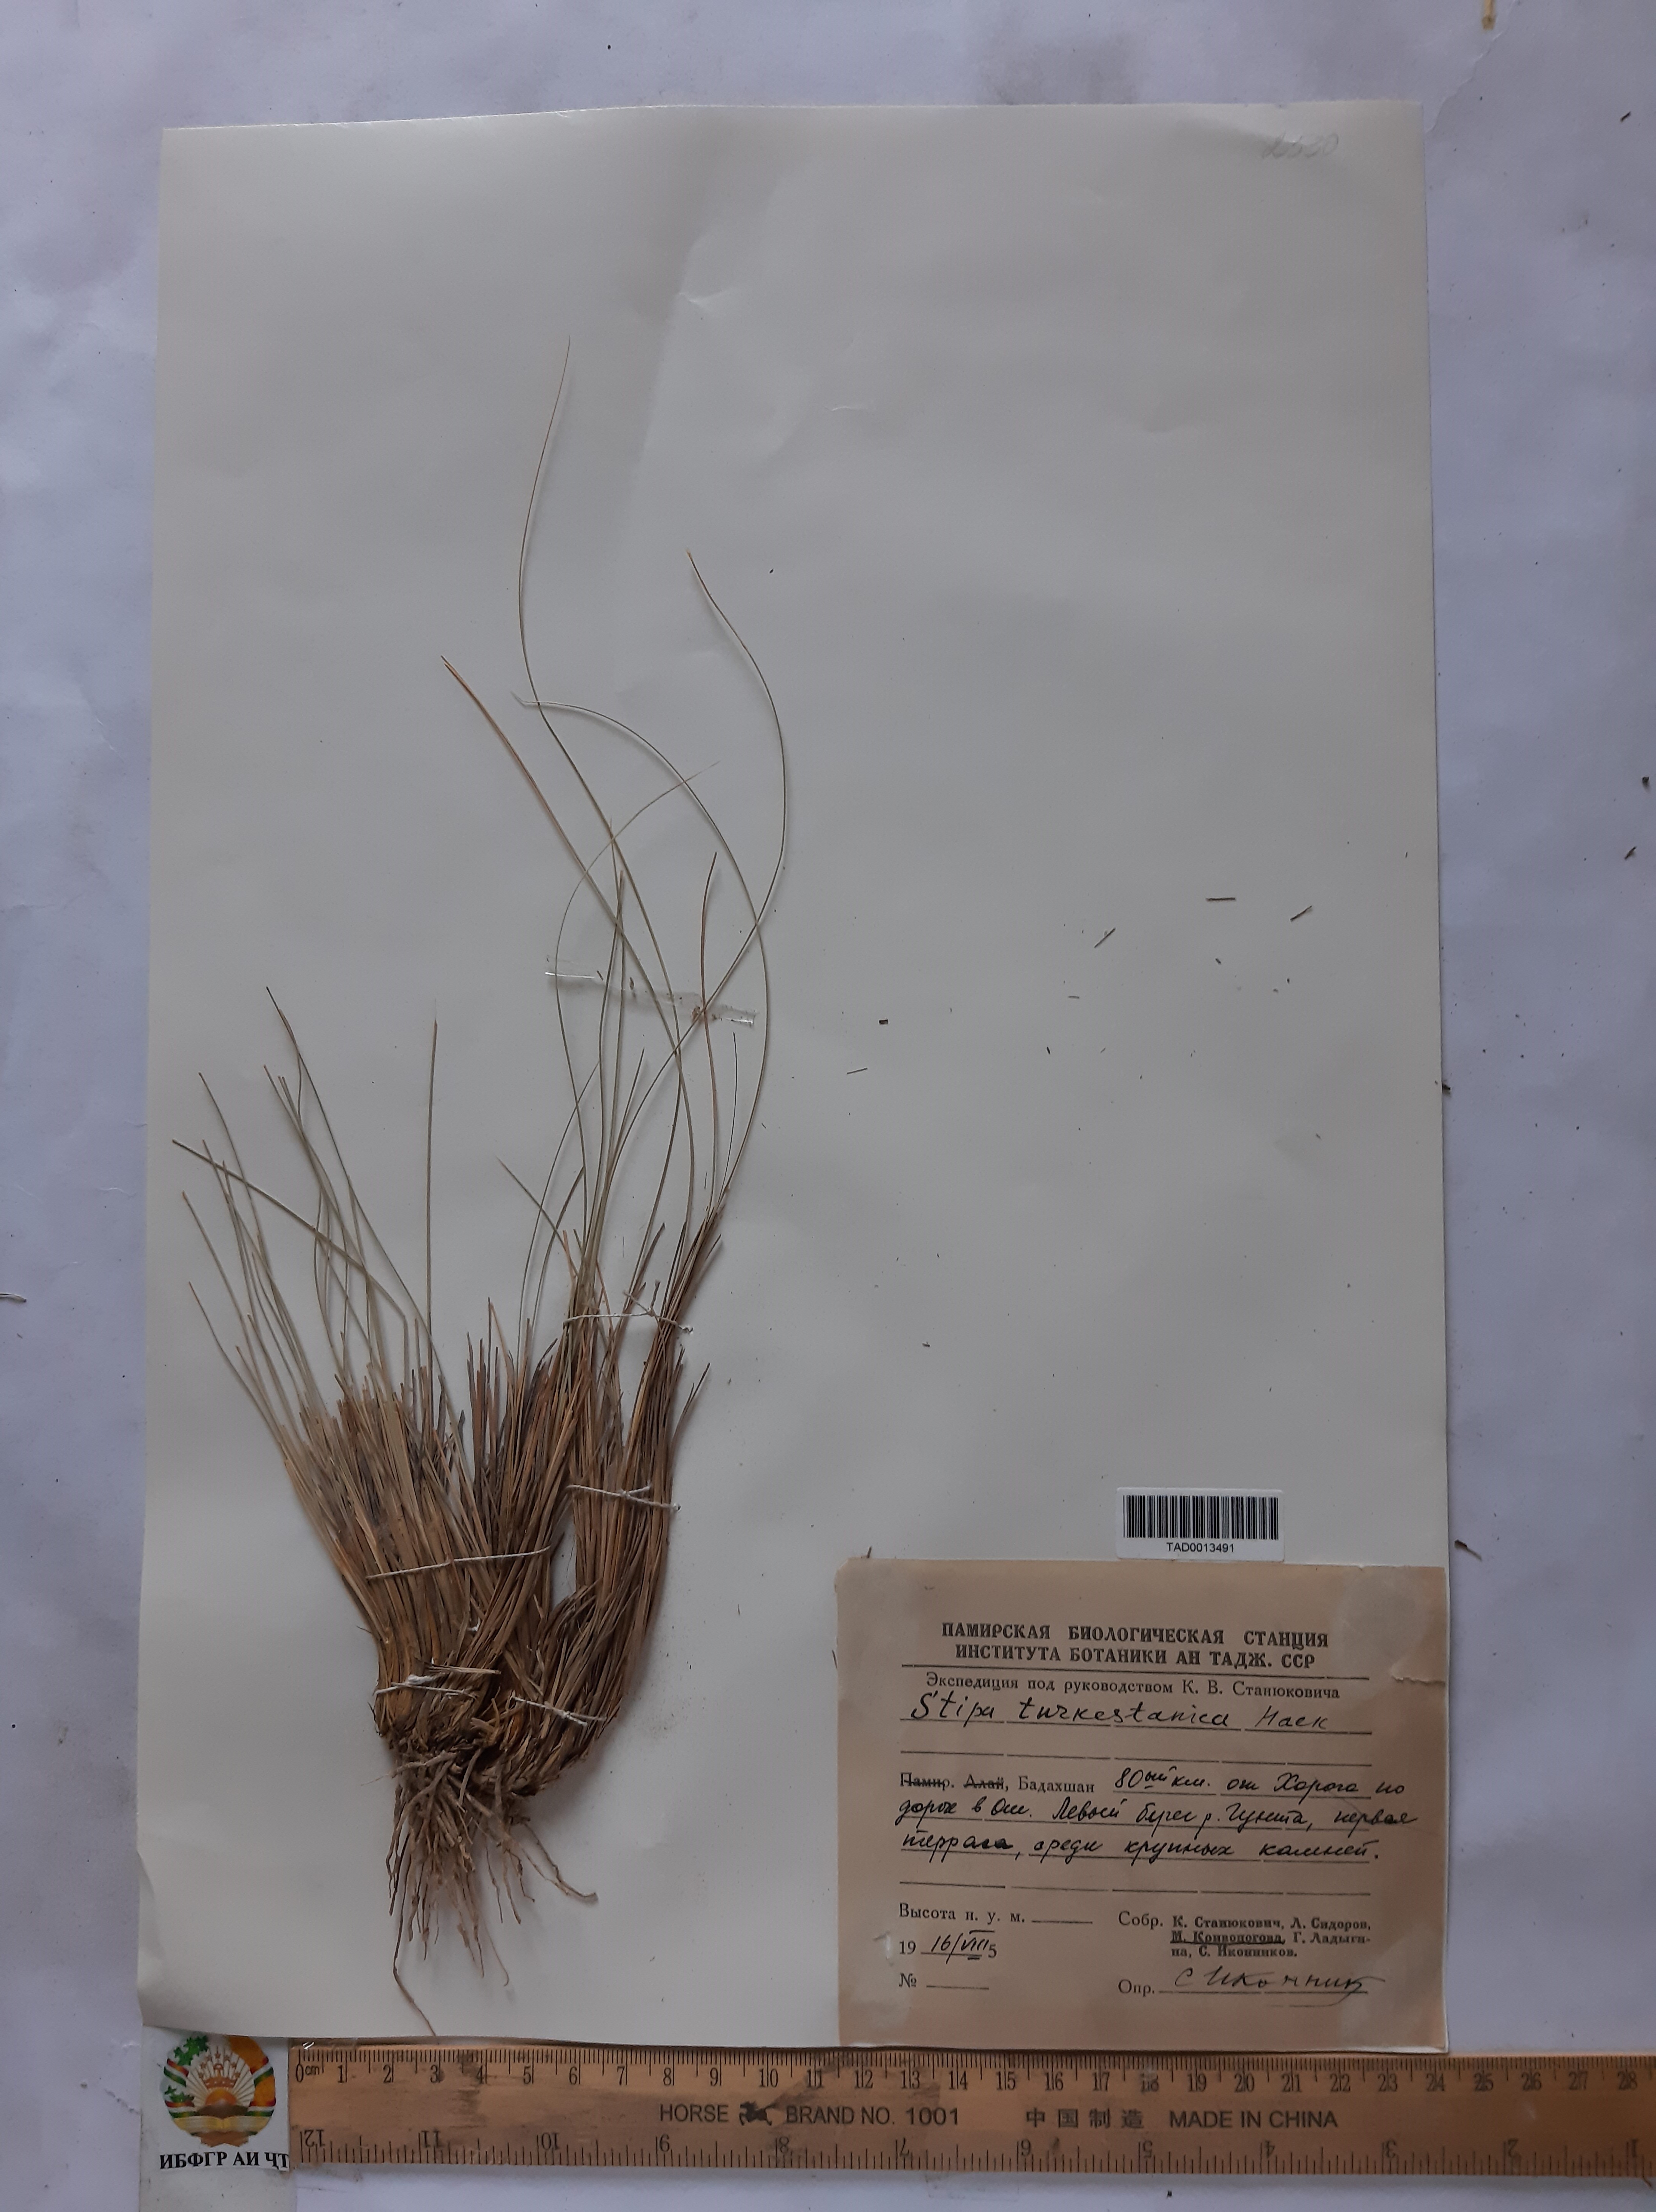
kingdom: Plantae
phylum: Tracheophyta
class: Liliopsida
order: Poales
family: Poaceae
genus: Stipa
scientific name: Stipa turkestanica
